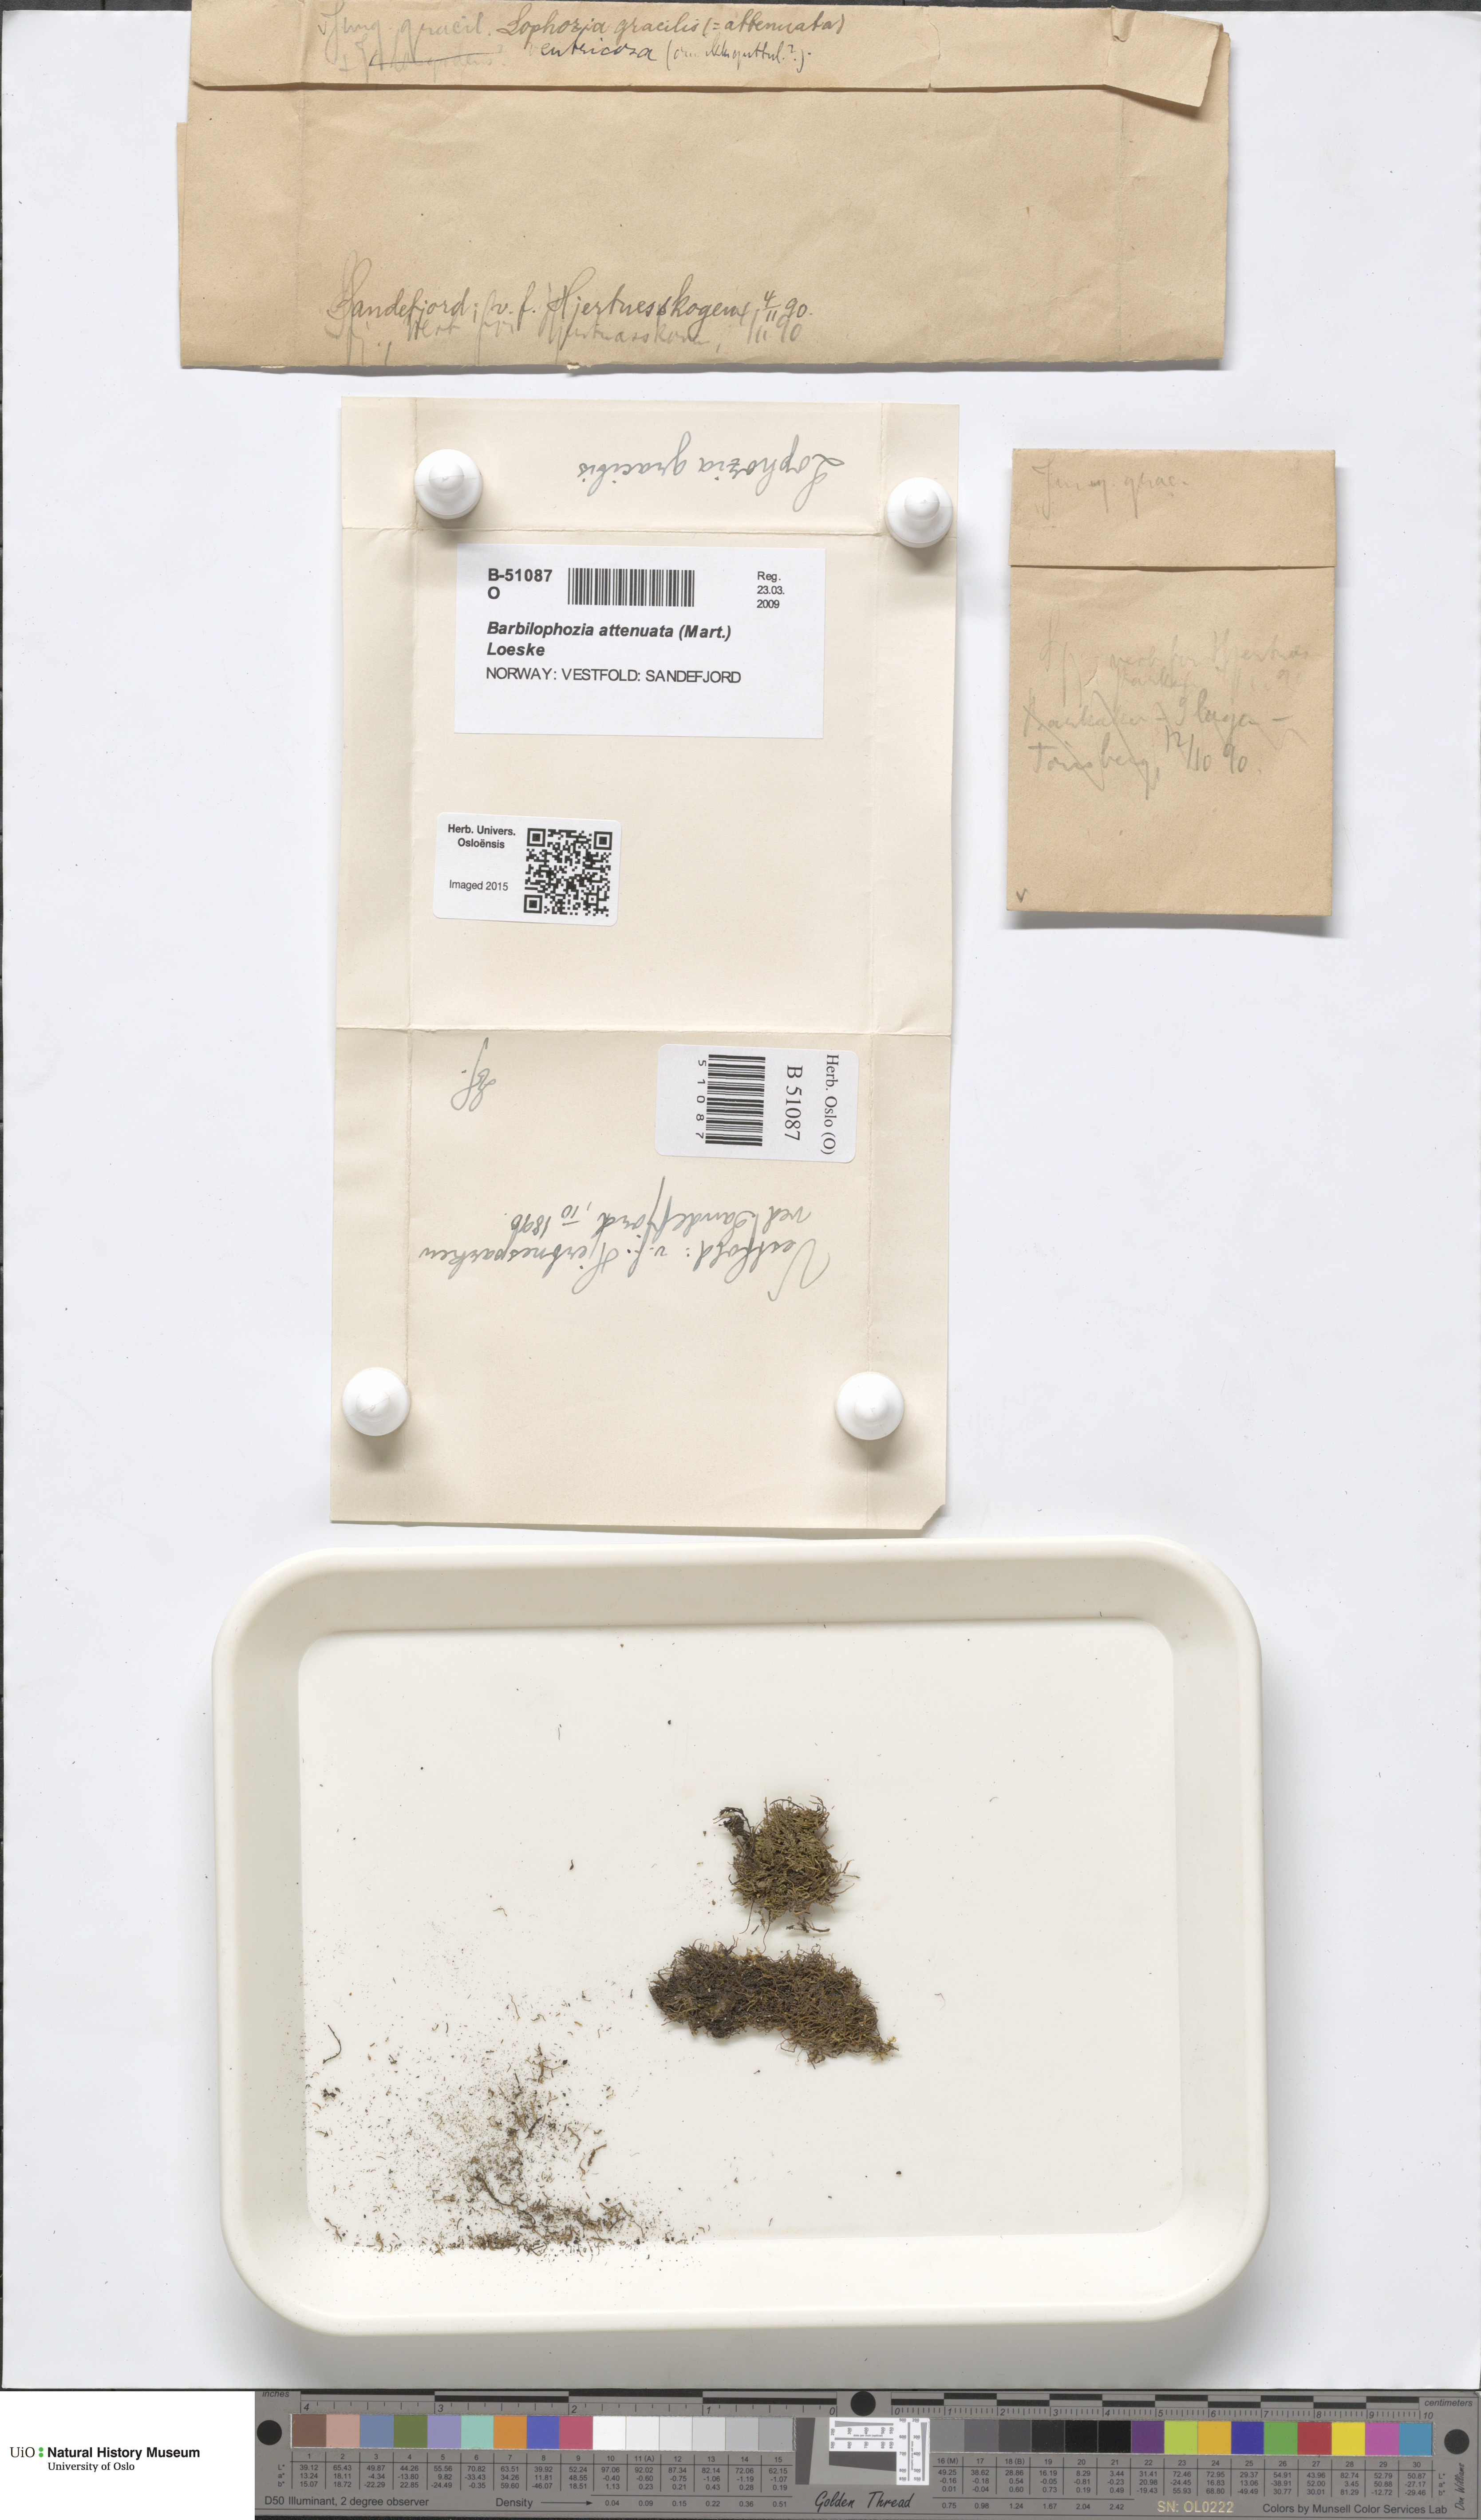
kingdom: Plantae
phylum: Marchantiophyta
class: Jungermanniopsida
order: Jungermanniales
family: Anastrophyllaceae
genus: Neoorthocaulis
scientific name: Neoorthocaulis attenuatus
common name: Trunk pawwort
